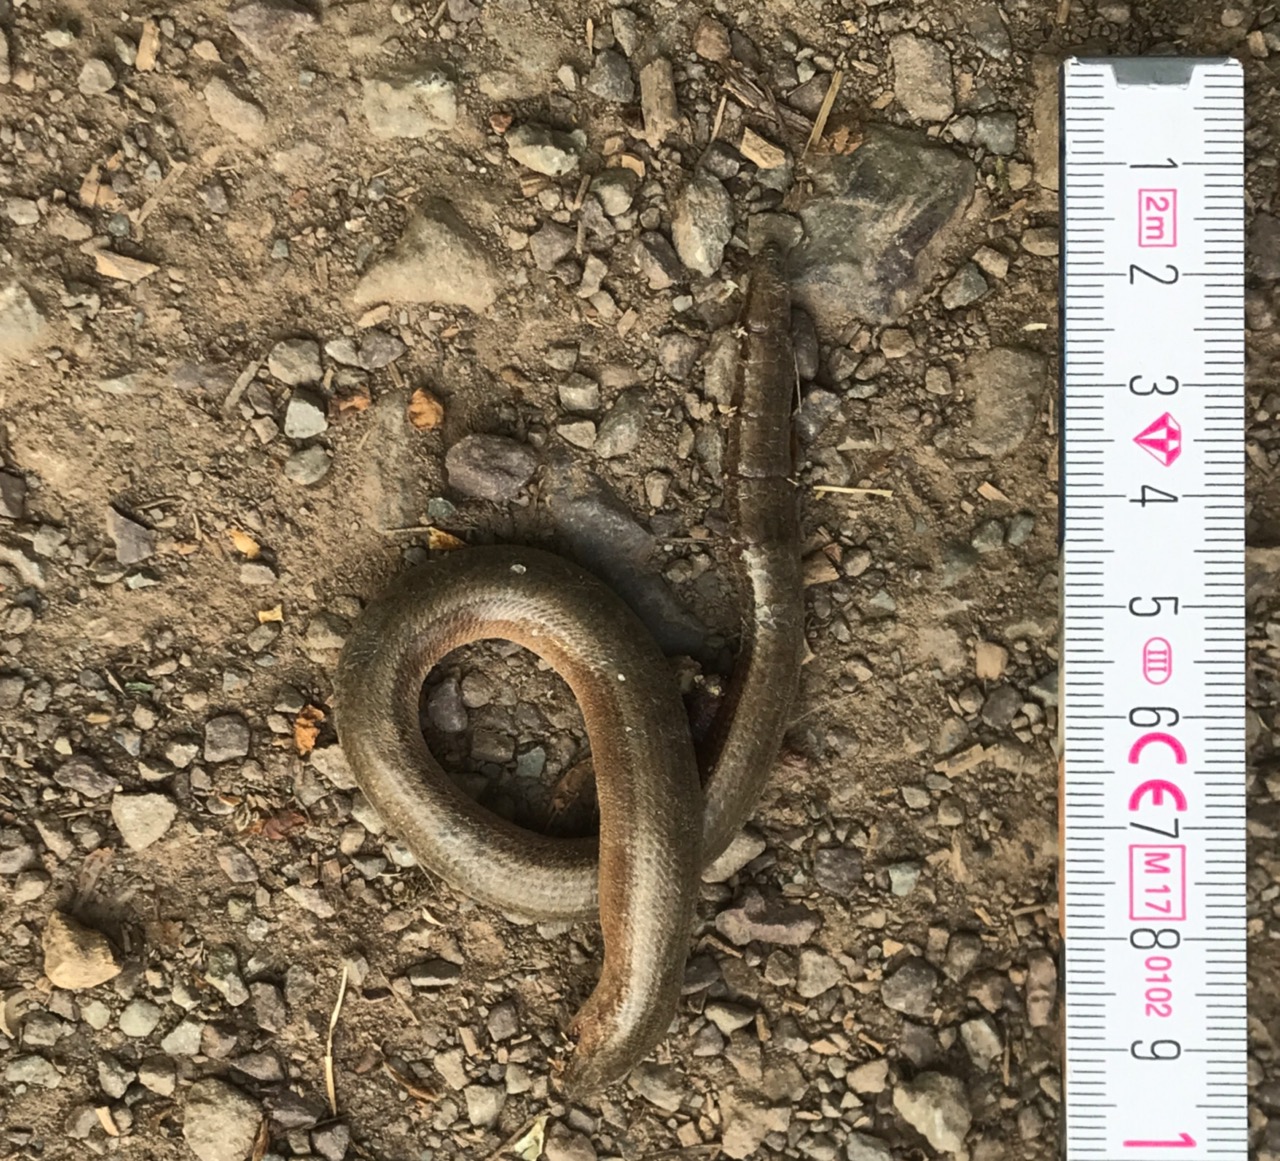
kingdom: Animalia
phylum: Chordata
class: Squamata
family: Anguidae
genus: Anguis
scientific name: Anguis fragilis
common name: Slow worm
